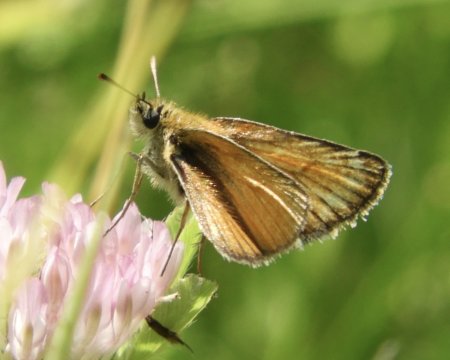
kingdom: Animalia
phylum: Arthropoda
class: Insecta
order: Lepidoptera
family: Hesperiidae
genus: Thymelicus
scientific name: Thymelicus lineola
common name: European Skipper
